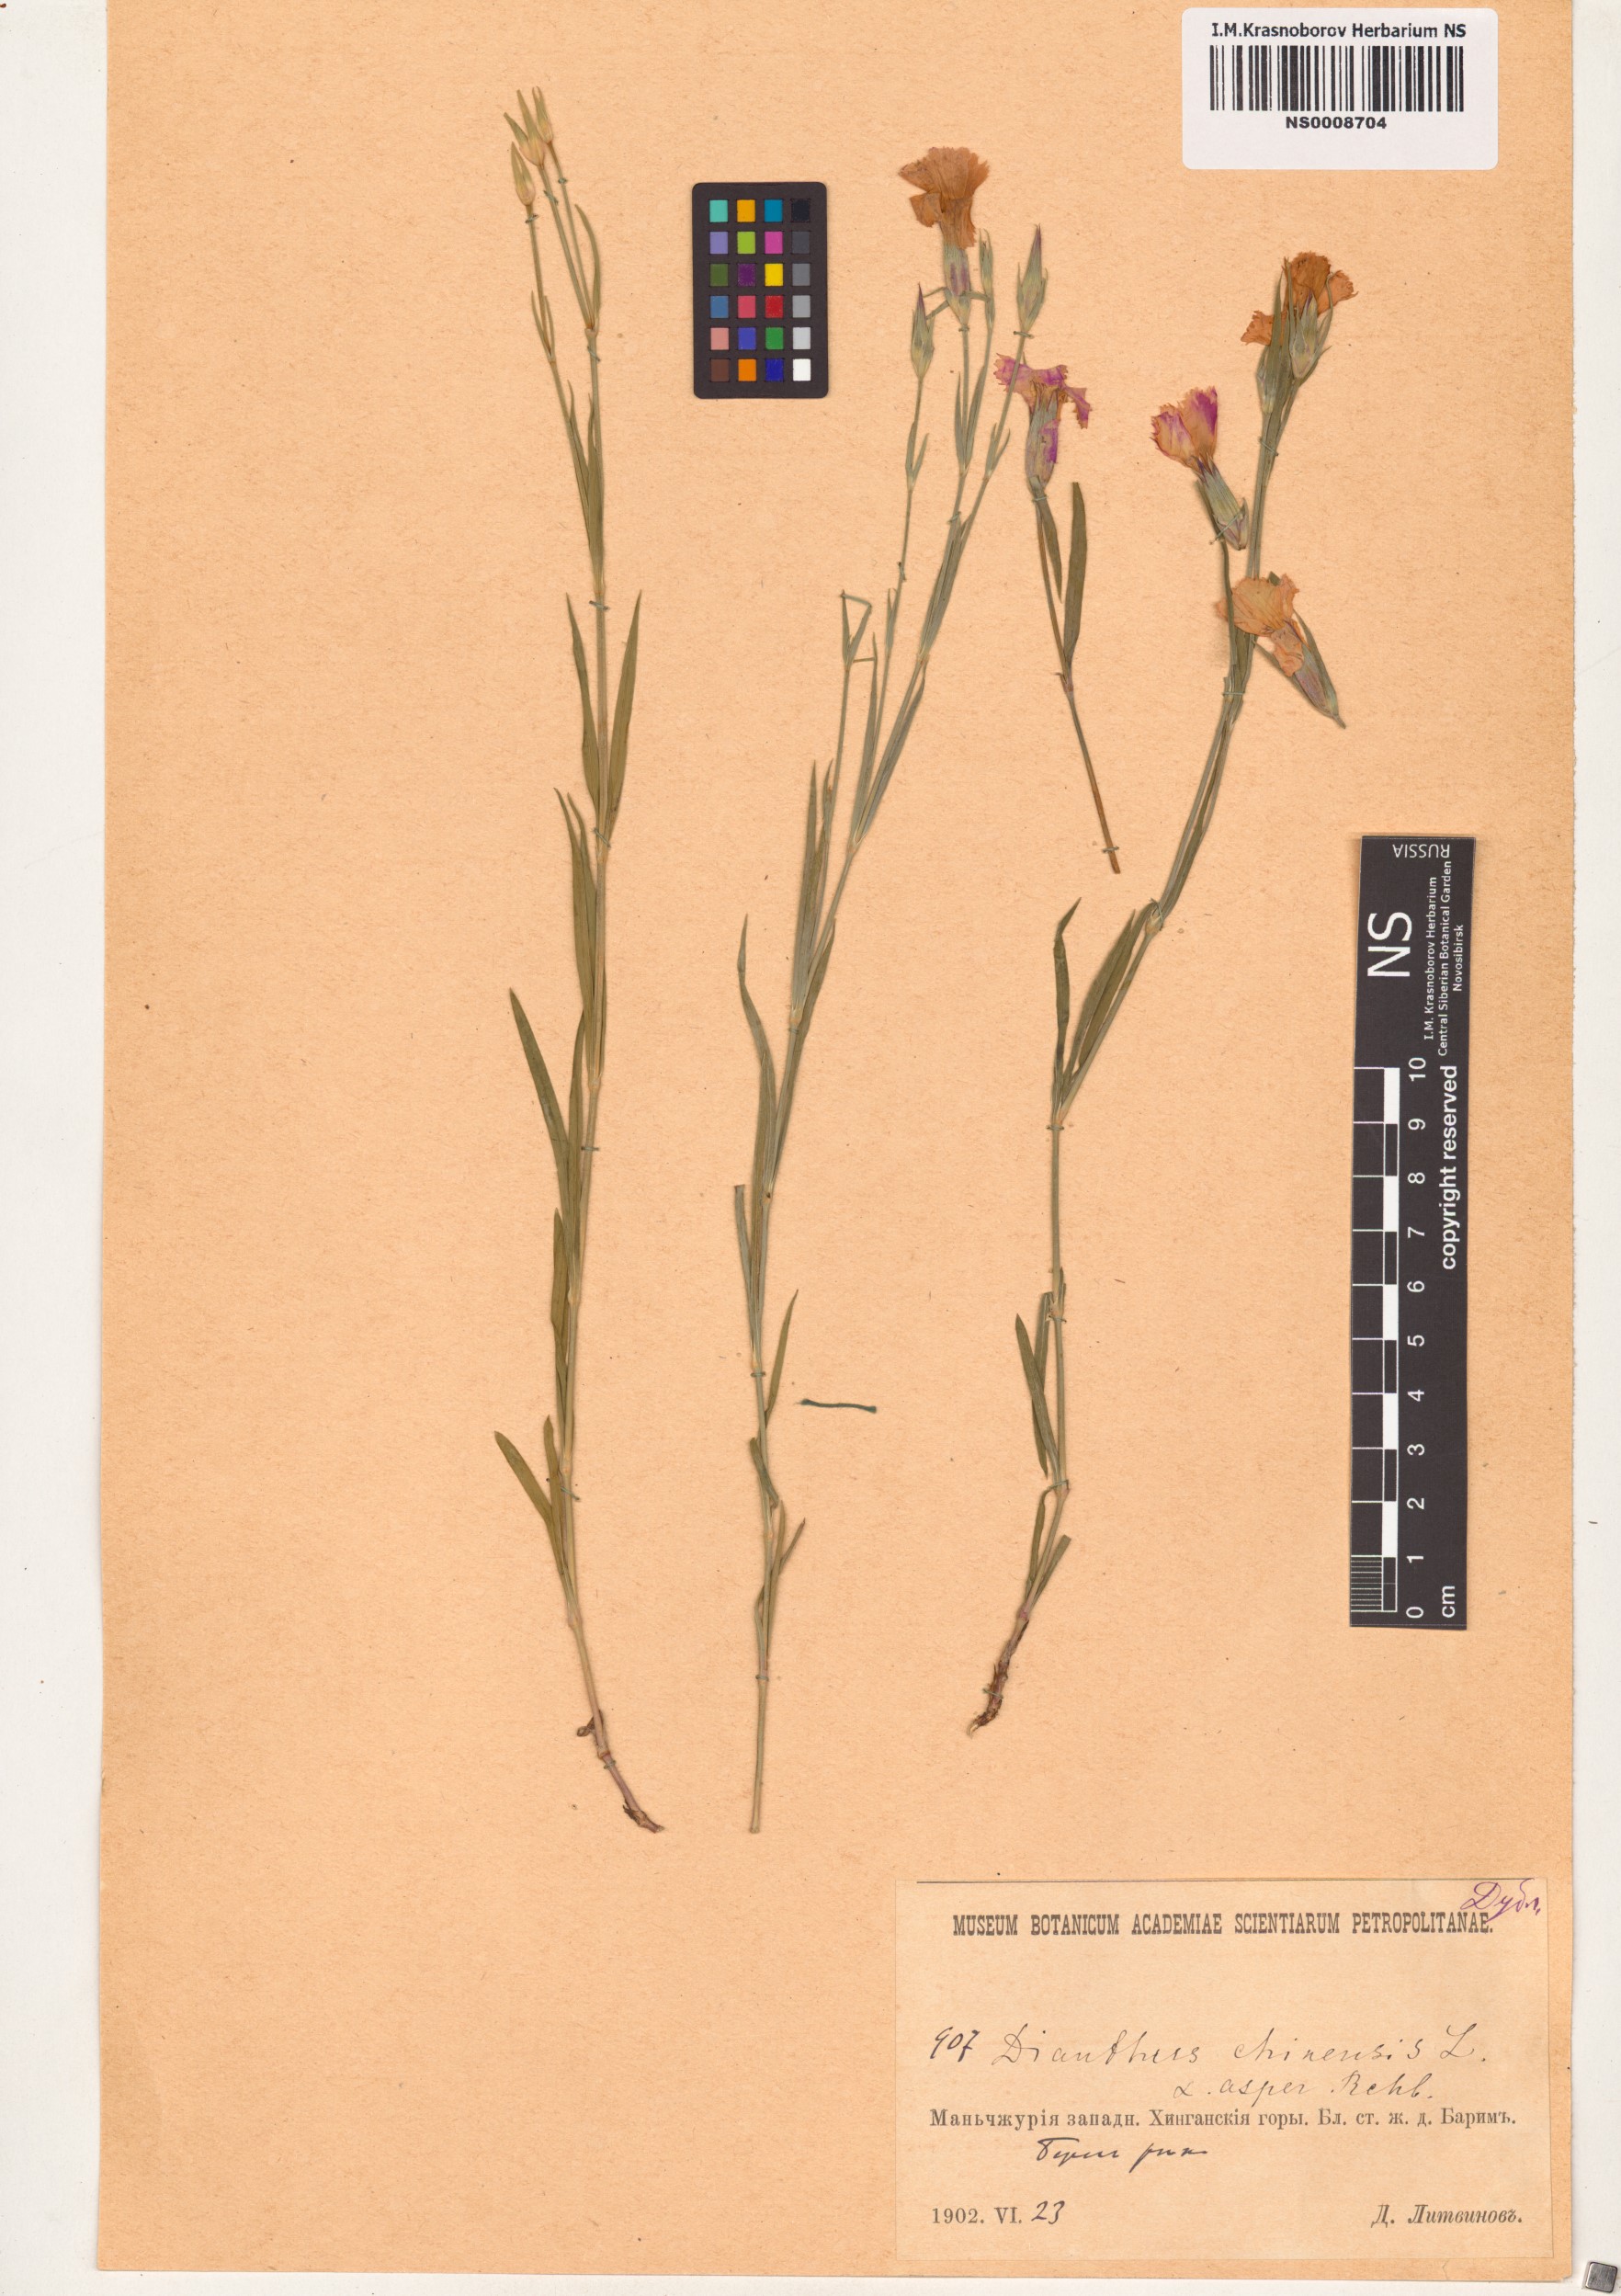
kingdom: Plantae
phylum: Tracheophyta
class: Magnoliopsida
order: Caryophyllales
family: Caryophyllaceae
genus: Dianthus
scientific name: Dianthus chinensis
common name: Rainbow pink
